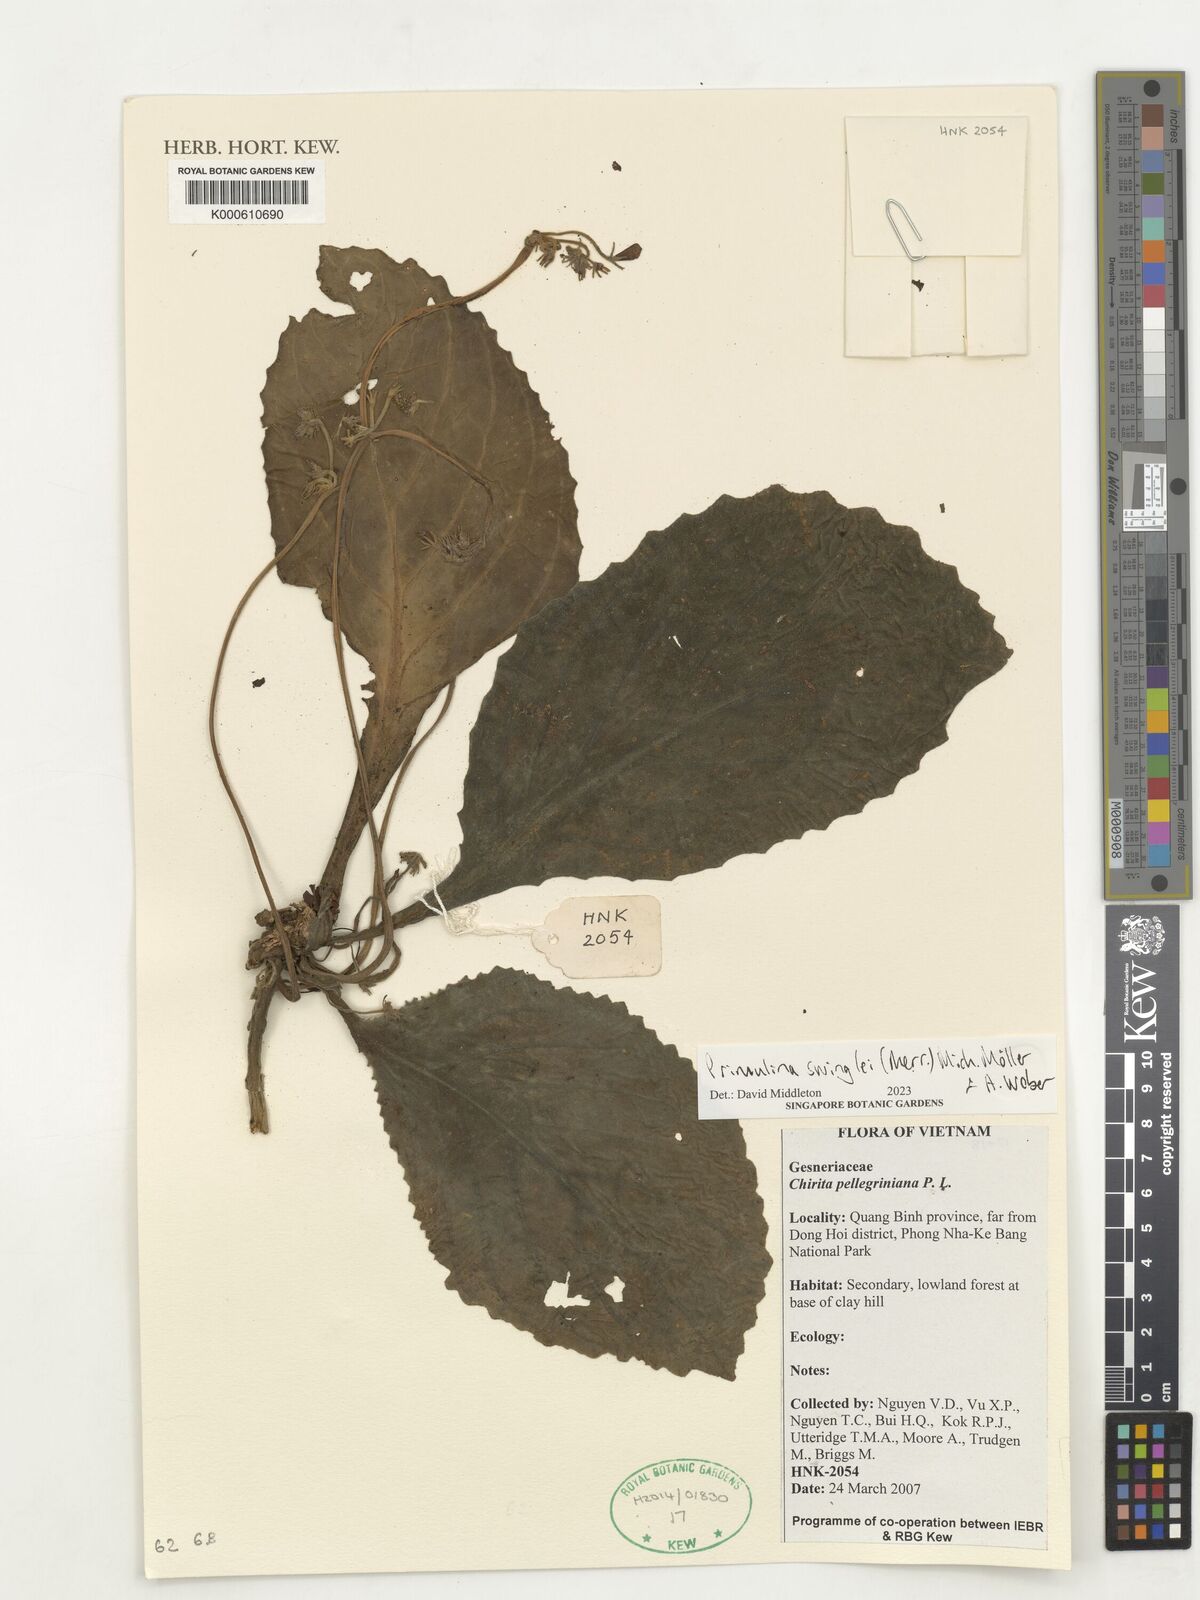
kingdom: Plantae
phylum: Tracheophyta
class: Magnoliopsida
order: Lamiales
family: Gesneriaceae
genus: Primulina
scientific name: Primulina swinglei
